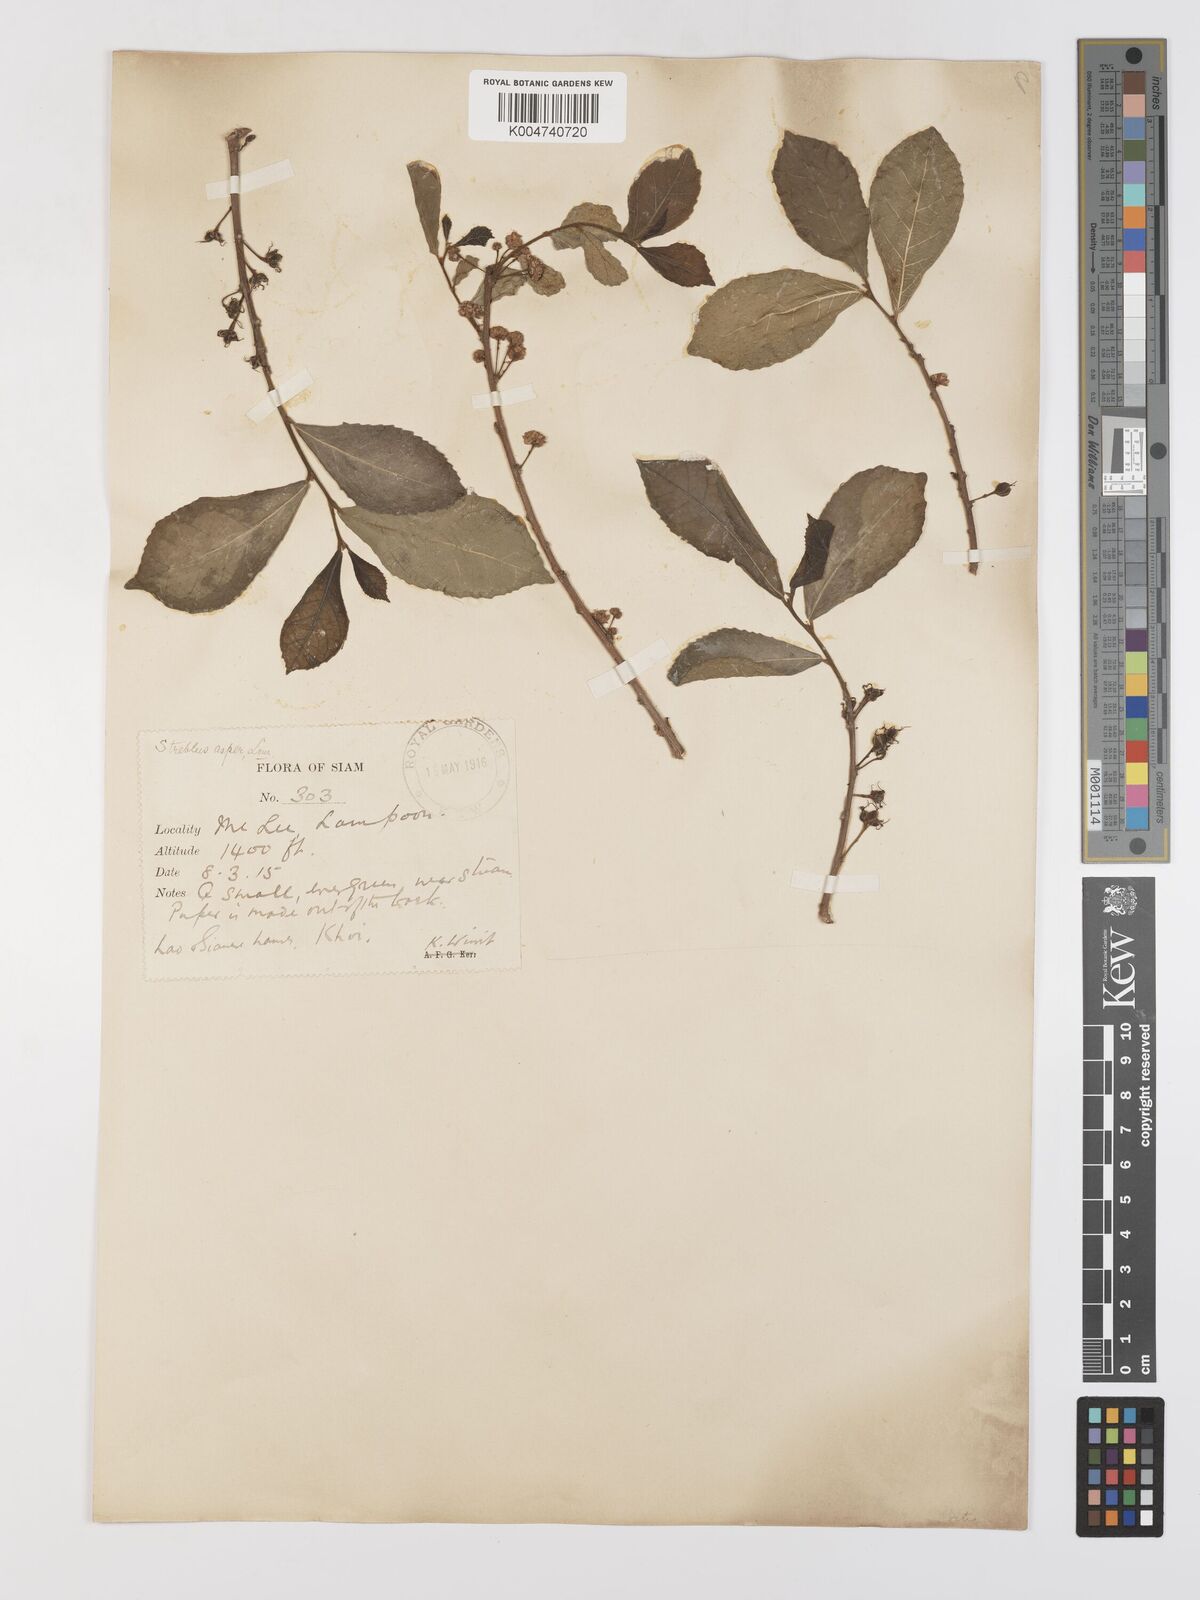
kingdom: Plantae
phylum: Tracheophyta
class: Magnoliopsida
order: Rosales
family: Moraceae
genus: Streblus
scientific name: Streblus asper
